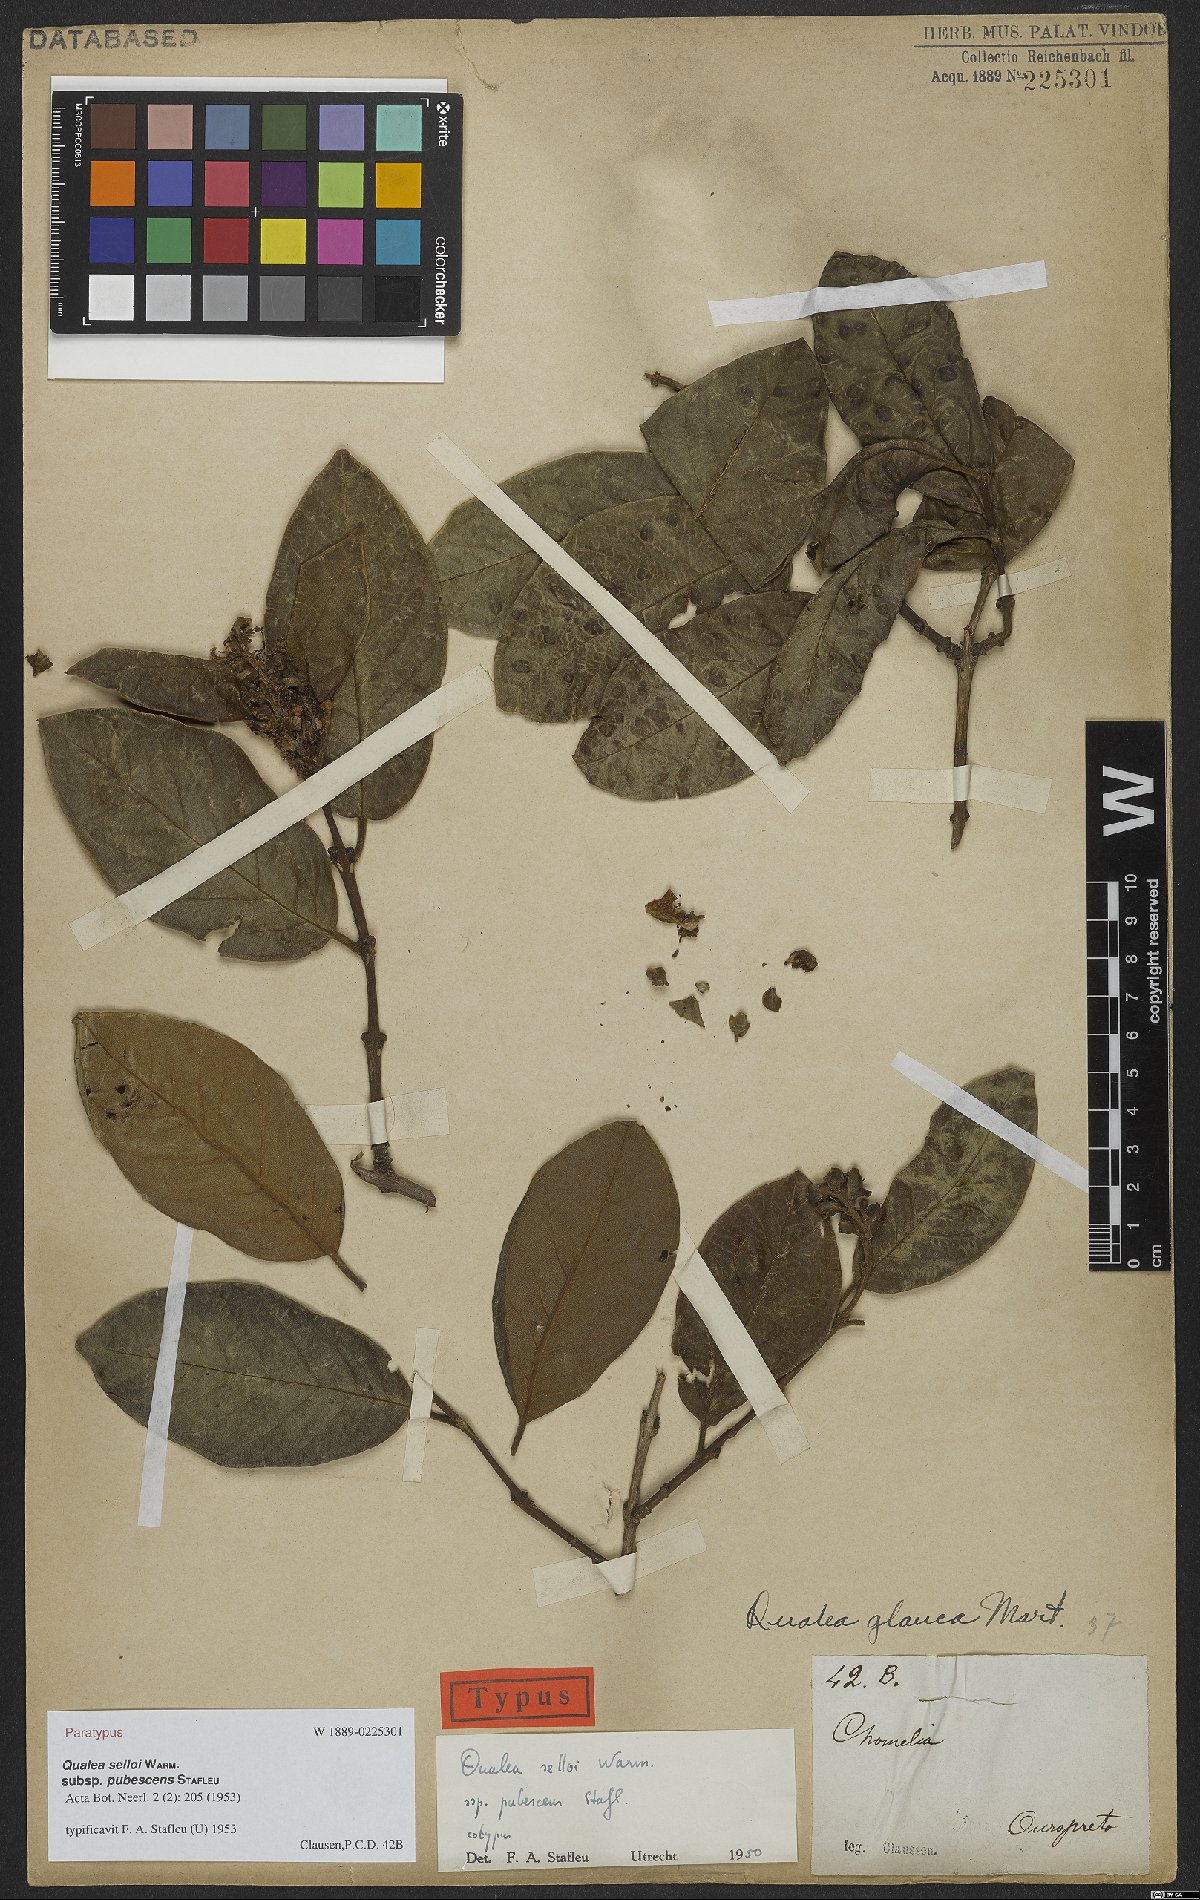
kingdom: Plantae
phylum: Tracheophyta
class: Magnoliopsida
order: Myrtales
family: Vochysiaceae
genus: Qualea
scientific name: Qualea selloi
